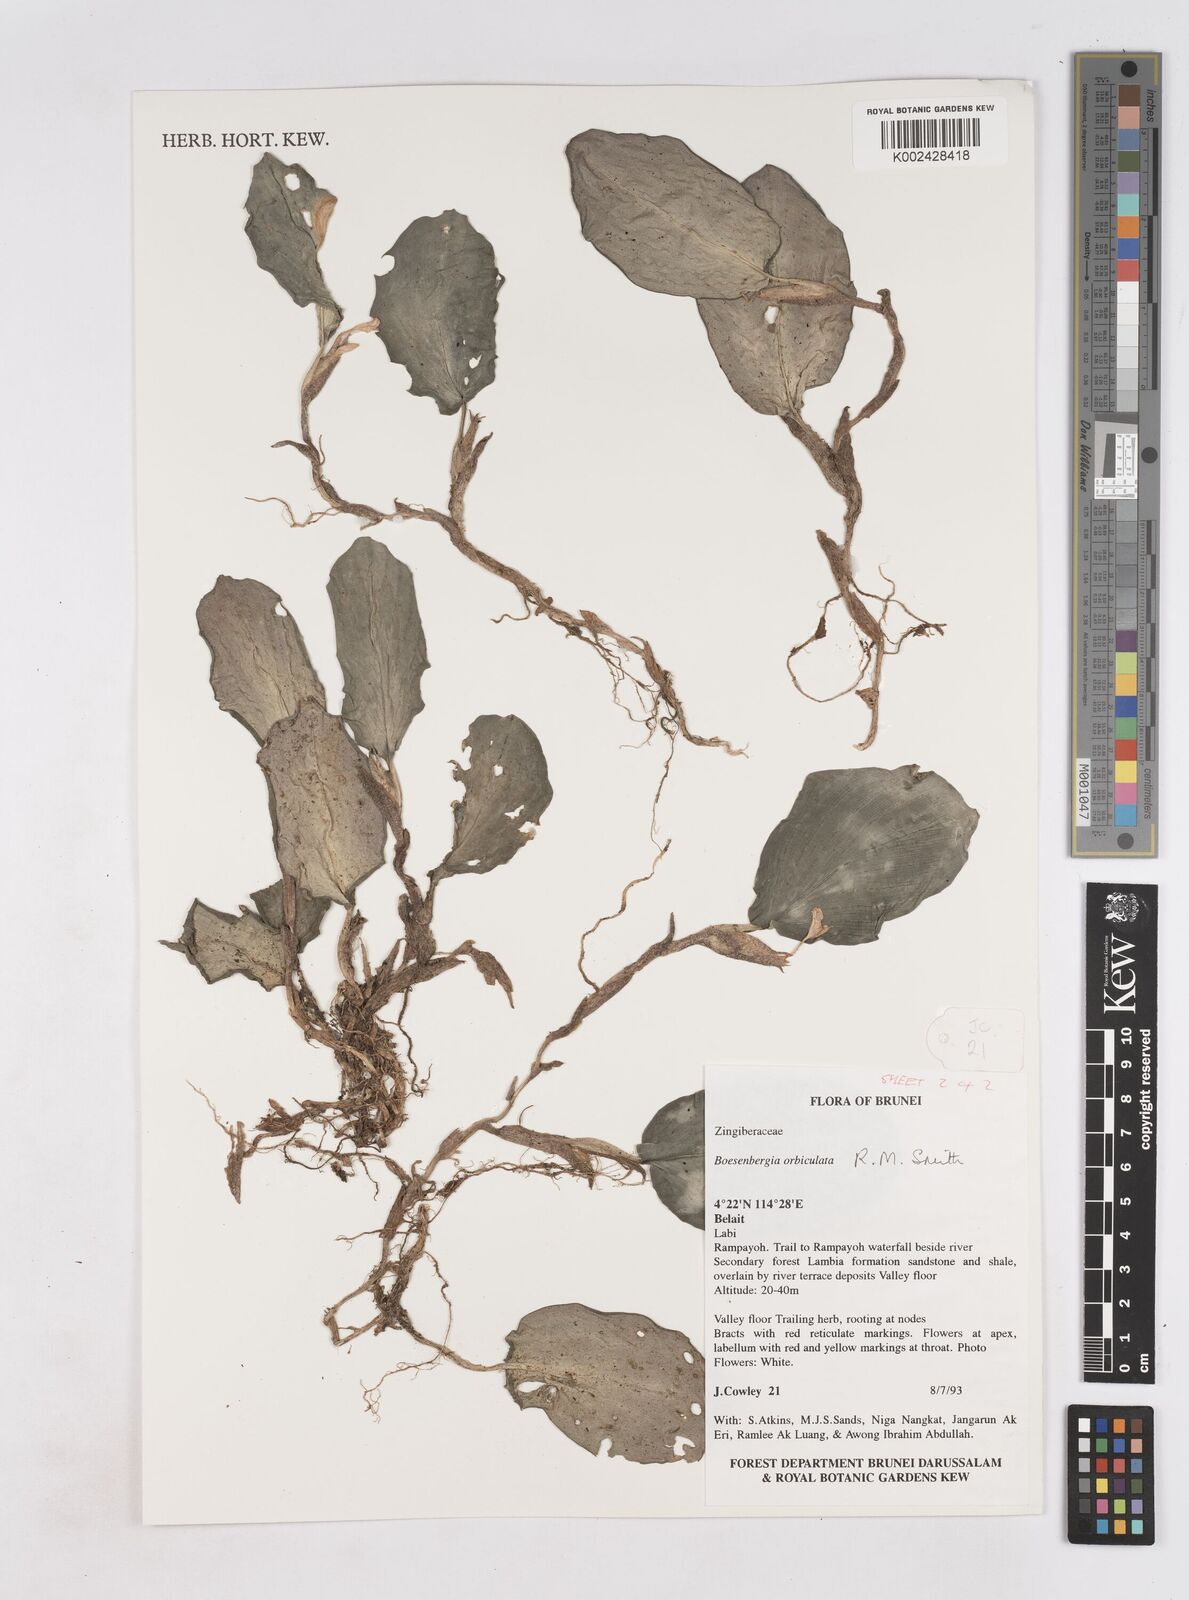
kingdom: Plantae
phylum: Tracheophyta
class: Liliopsida
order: Zingiberales
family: Zingiberaceae
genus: Boesenbergia
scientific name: Boesenbergia orbiculata
